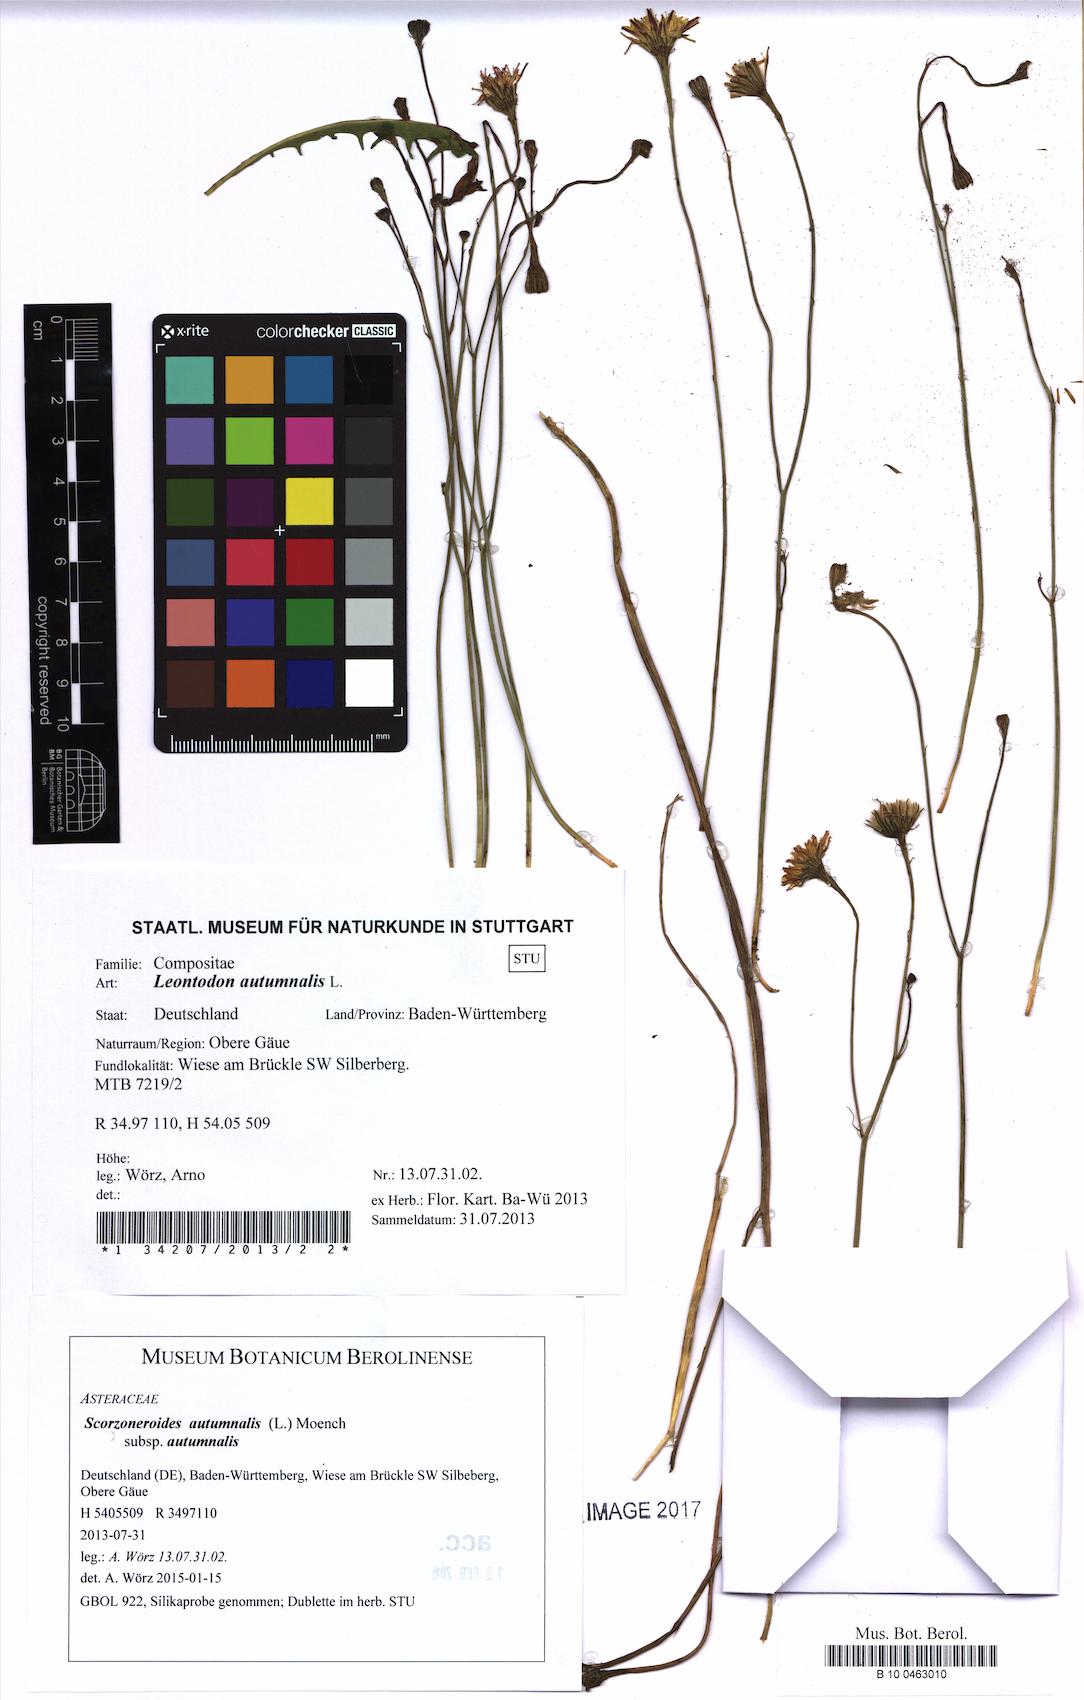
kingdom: Plantae
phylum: Tracheophyta
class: Magnoliopsida
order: Asterales
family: Asteraceae
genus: Scorzoneroides
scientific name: Scorzoneroides autumnalis
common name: Autumn hawkbit
